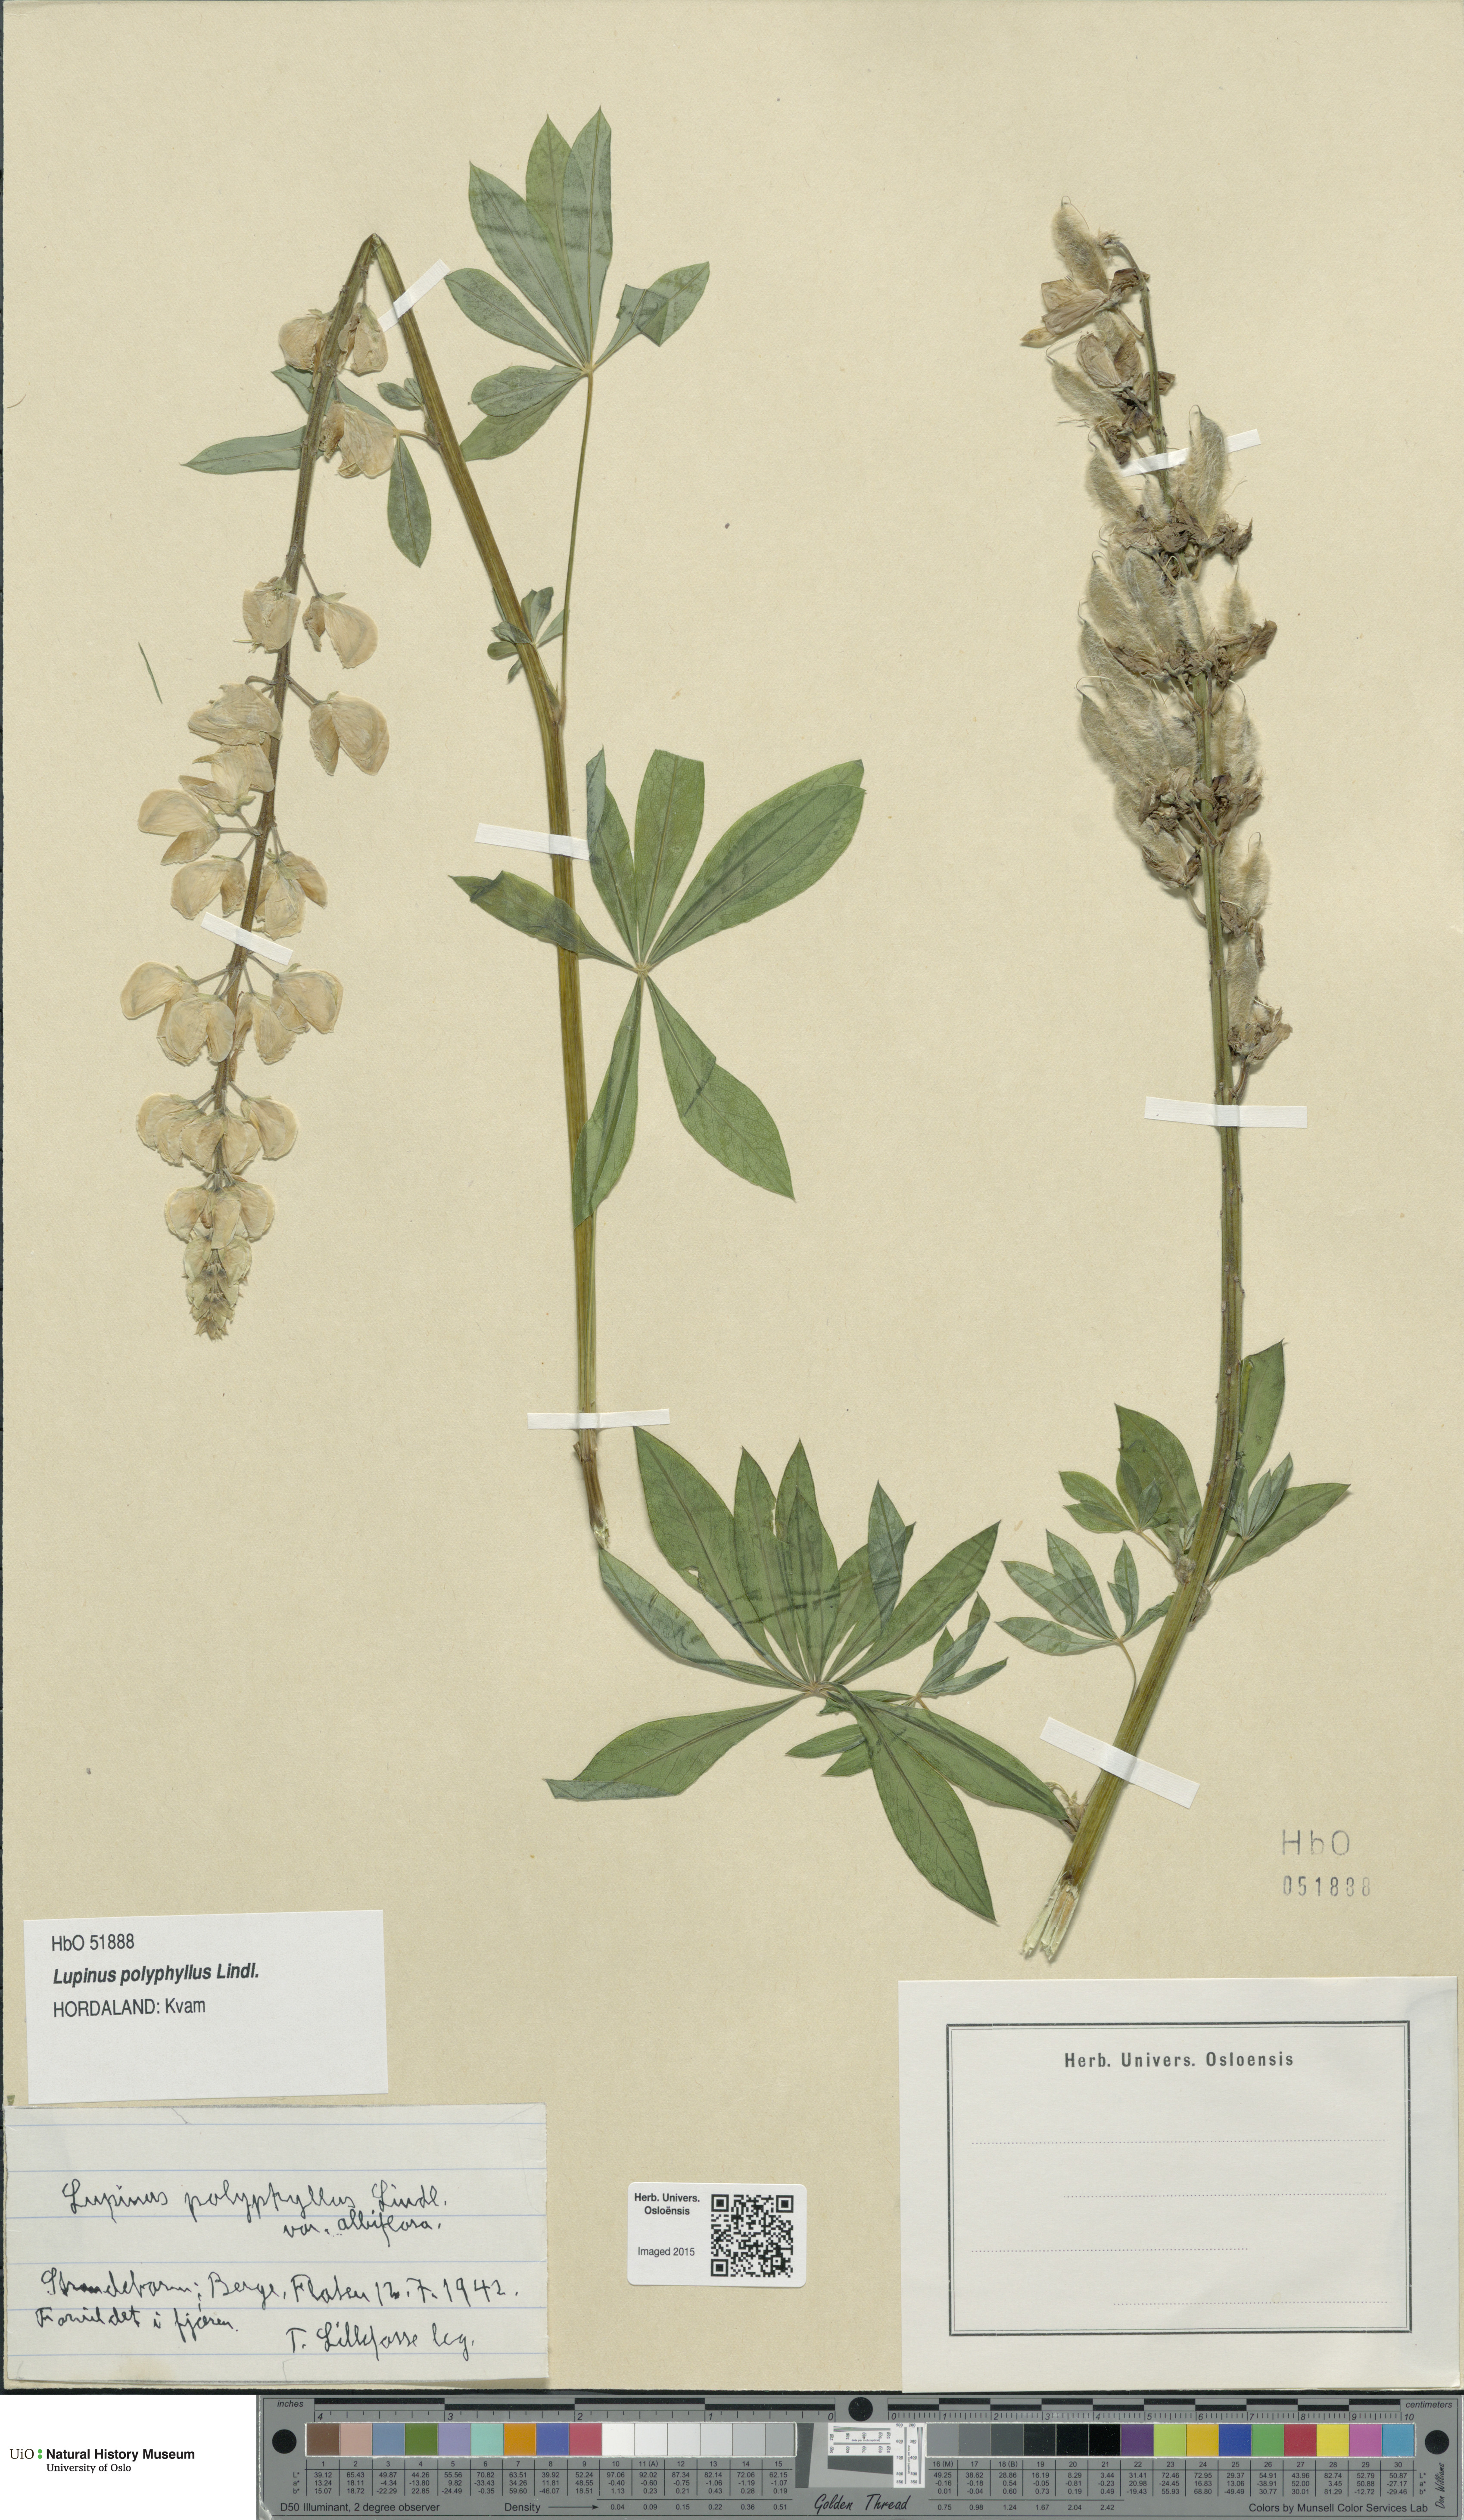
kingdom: Plantae
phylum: Tracheophyta
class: Magnoliopsida
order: Fabales
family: Fabaceae
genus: Lupinus
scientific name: Lupinus polyphyllus
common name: Garden lupin
